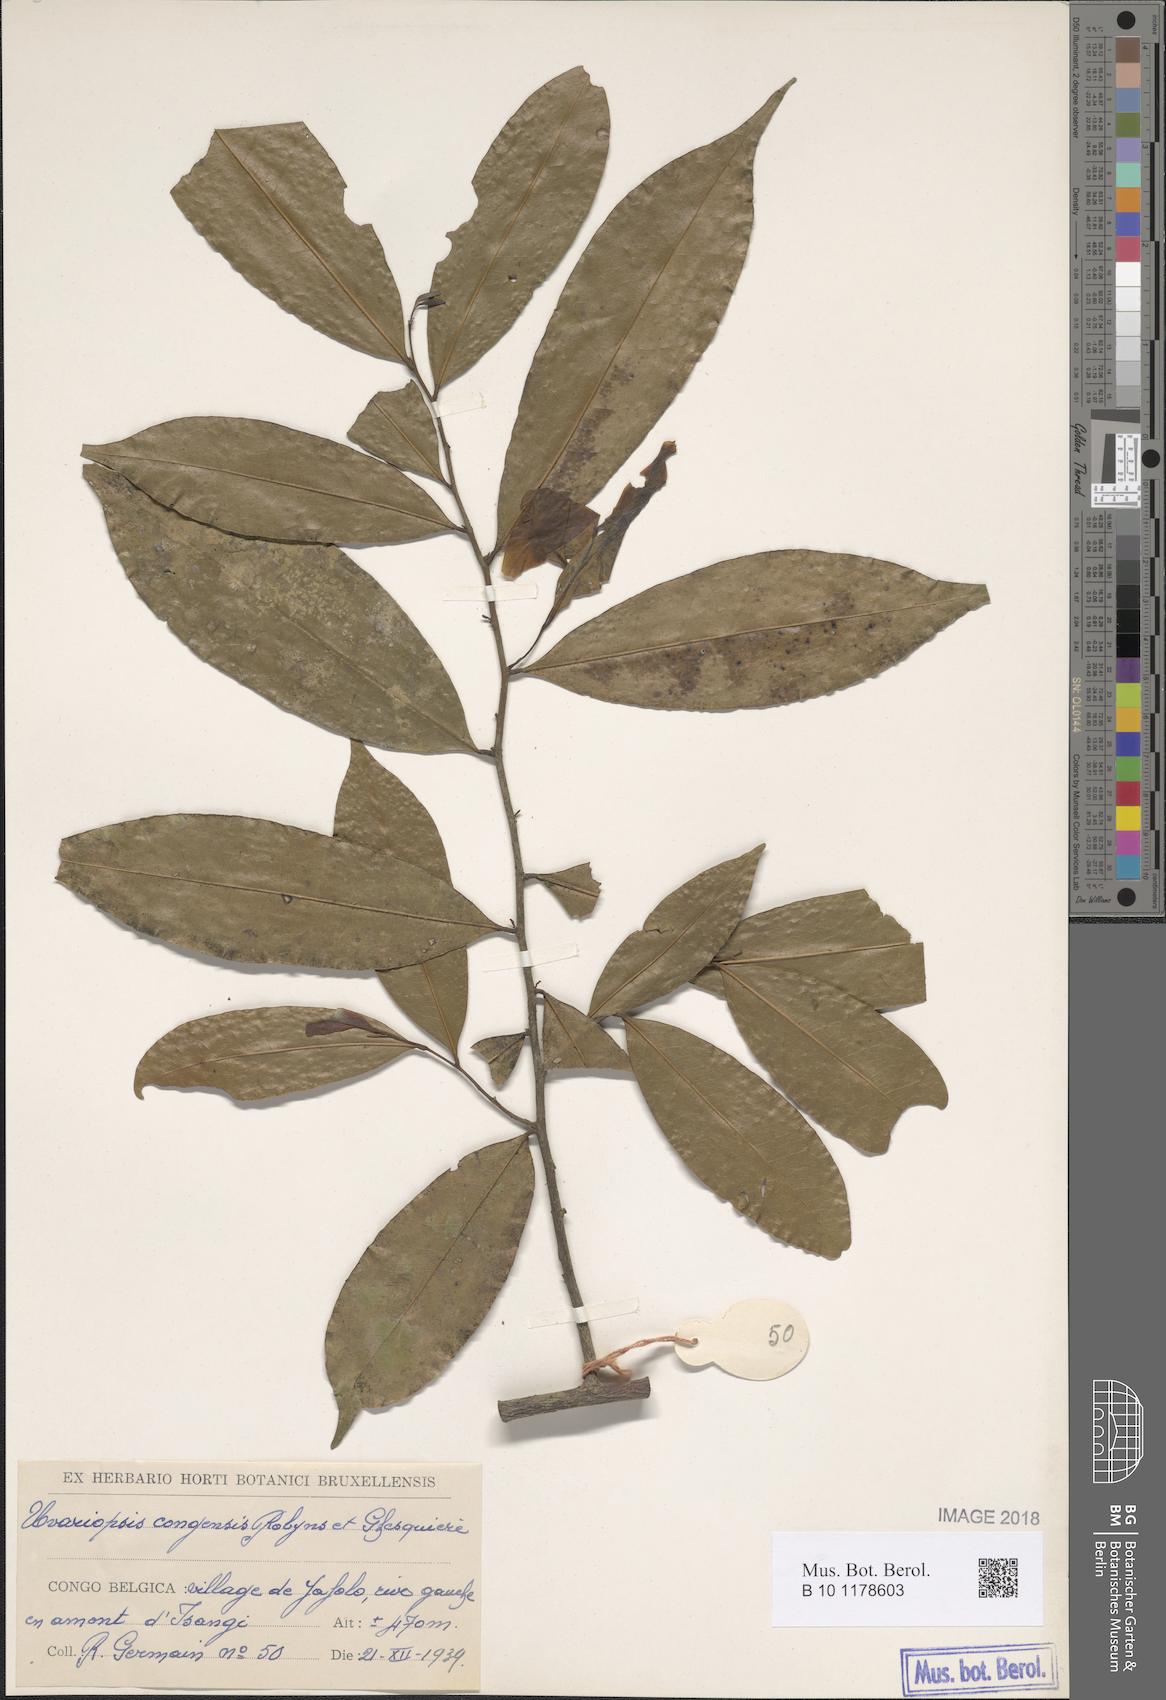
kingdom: Plantae
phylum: Tracheophyta
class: Magnoliopsida
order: Magnoliales
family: Annonaceae
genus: Uvariopsis
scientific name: Uvariopsis congensis
